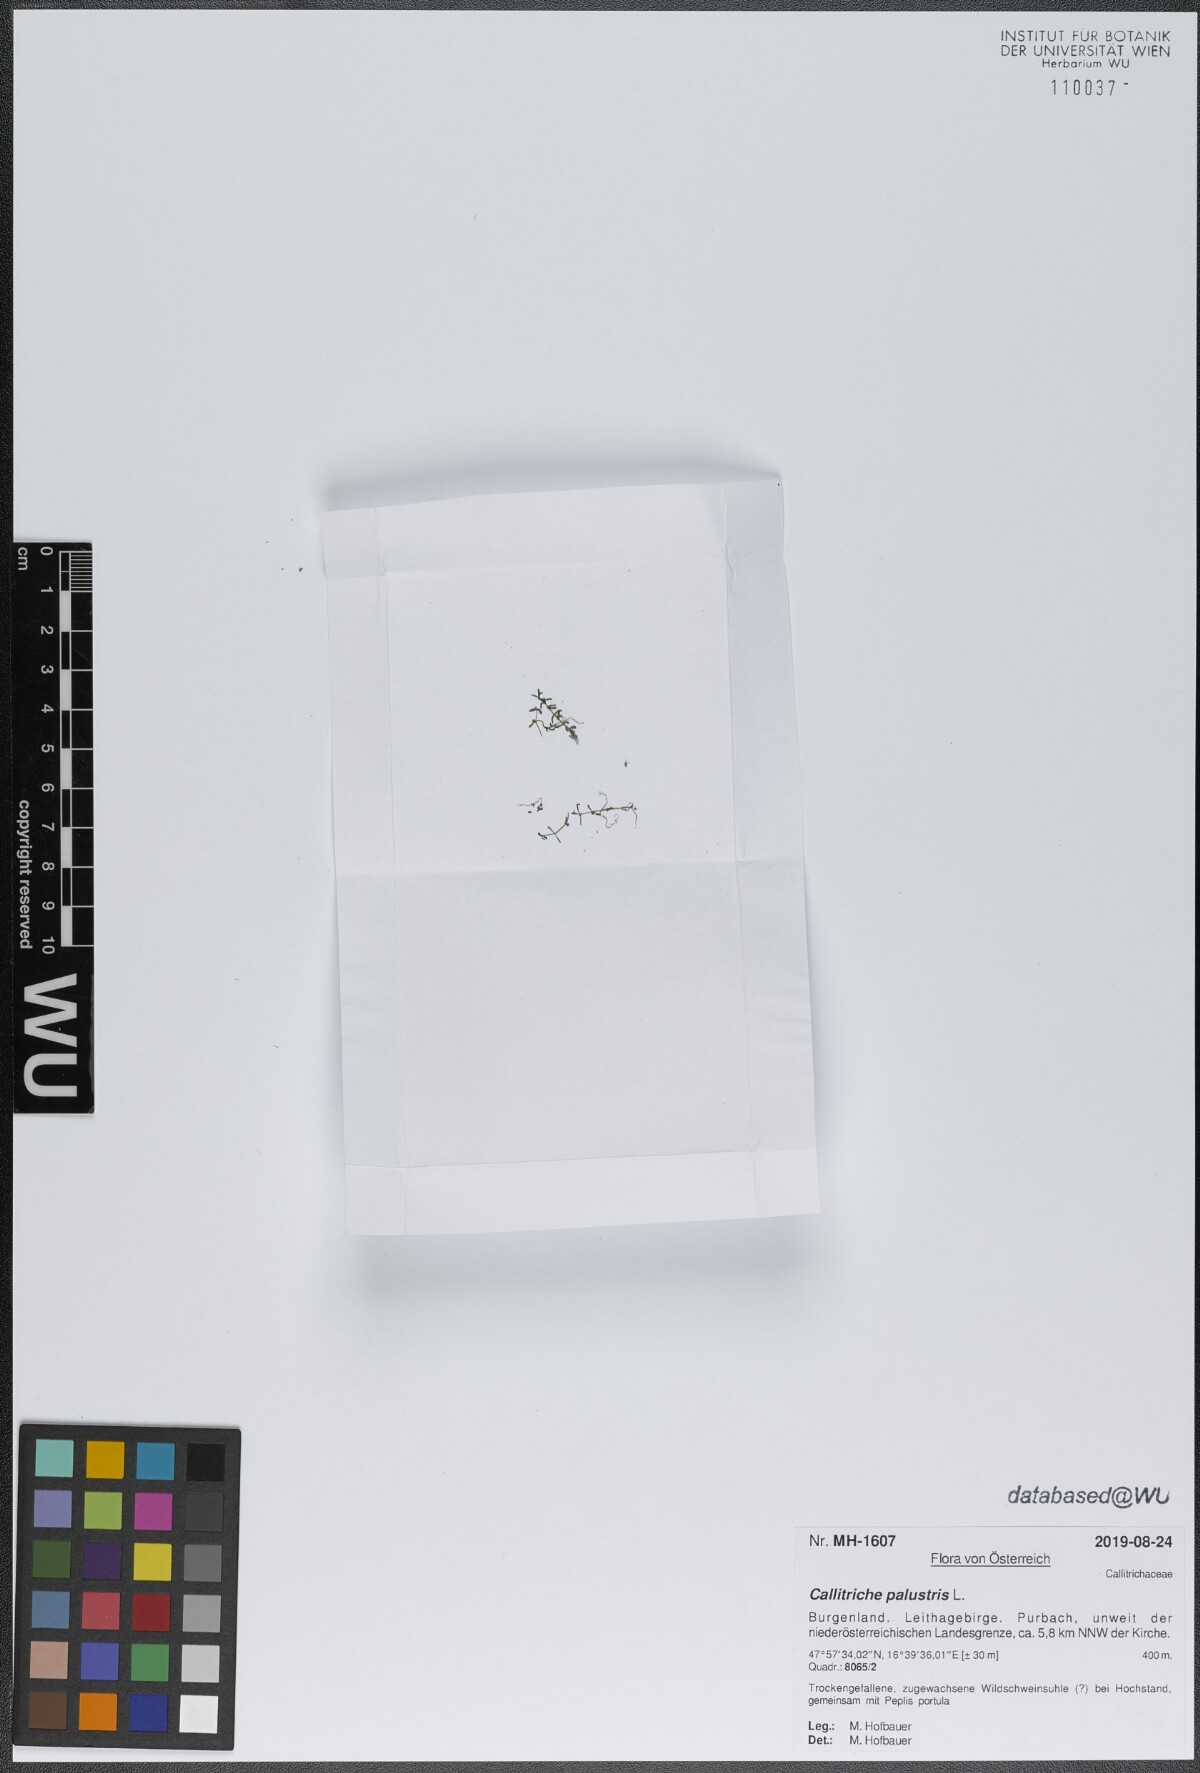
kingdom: Plantae
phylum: Tracheophyta
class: Magnoliopsida
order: Lamiales
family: Plantaginaceae
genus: Callitriche
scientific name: Callitriche palustris
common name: Spring water-starwort
